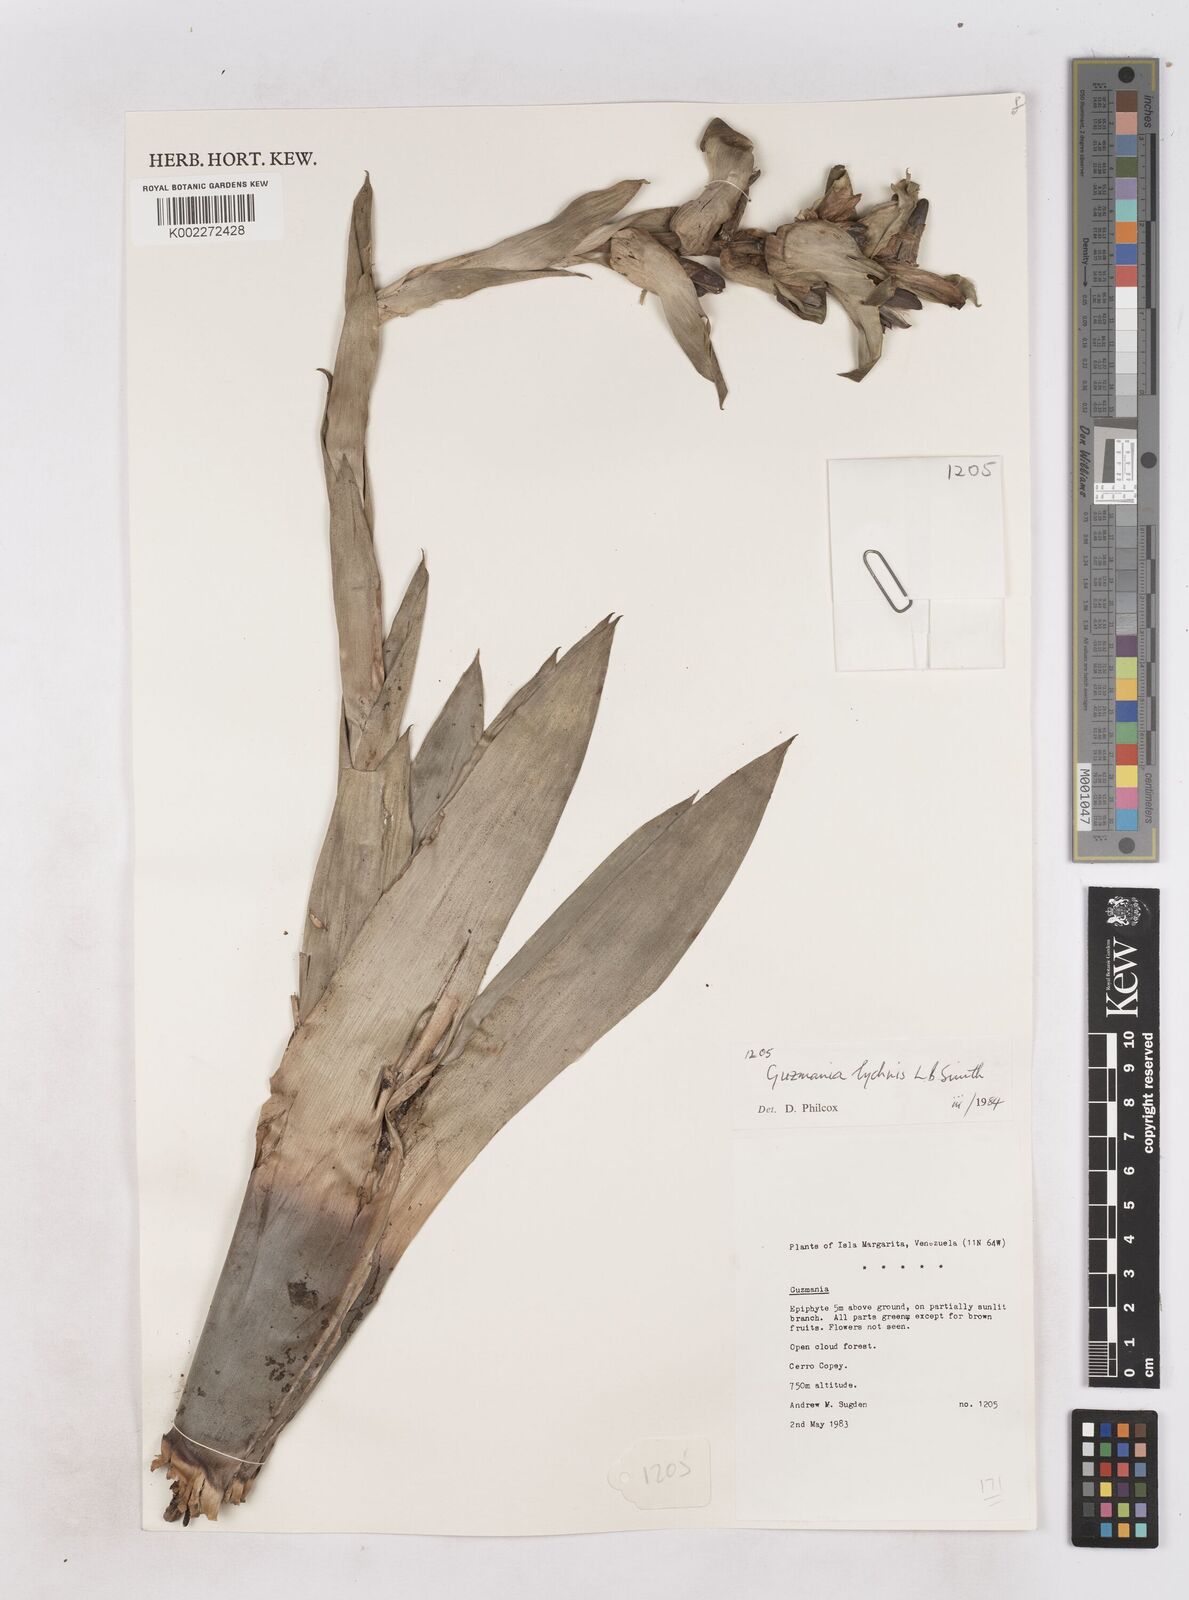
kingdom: Plantae
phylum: Tracheophyta
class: Liliopsida
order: Poales
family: Bromeliaceae
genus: Guzmania
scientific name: Guzmania lychnis
